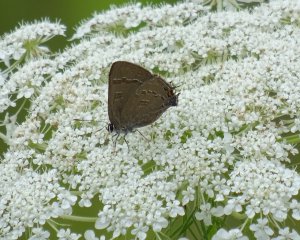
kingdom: Animalia
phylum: Arthropoda
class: Insecta
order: Lepidoptera
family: Lycaenidae
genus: Strymon
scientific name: Strymon caryaevorus
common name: Hickory Hairstreak
